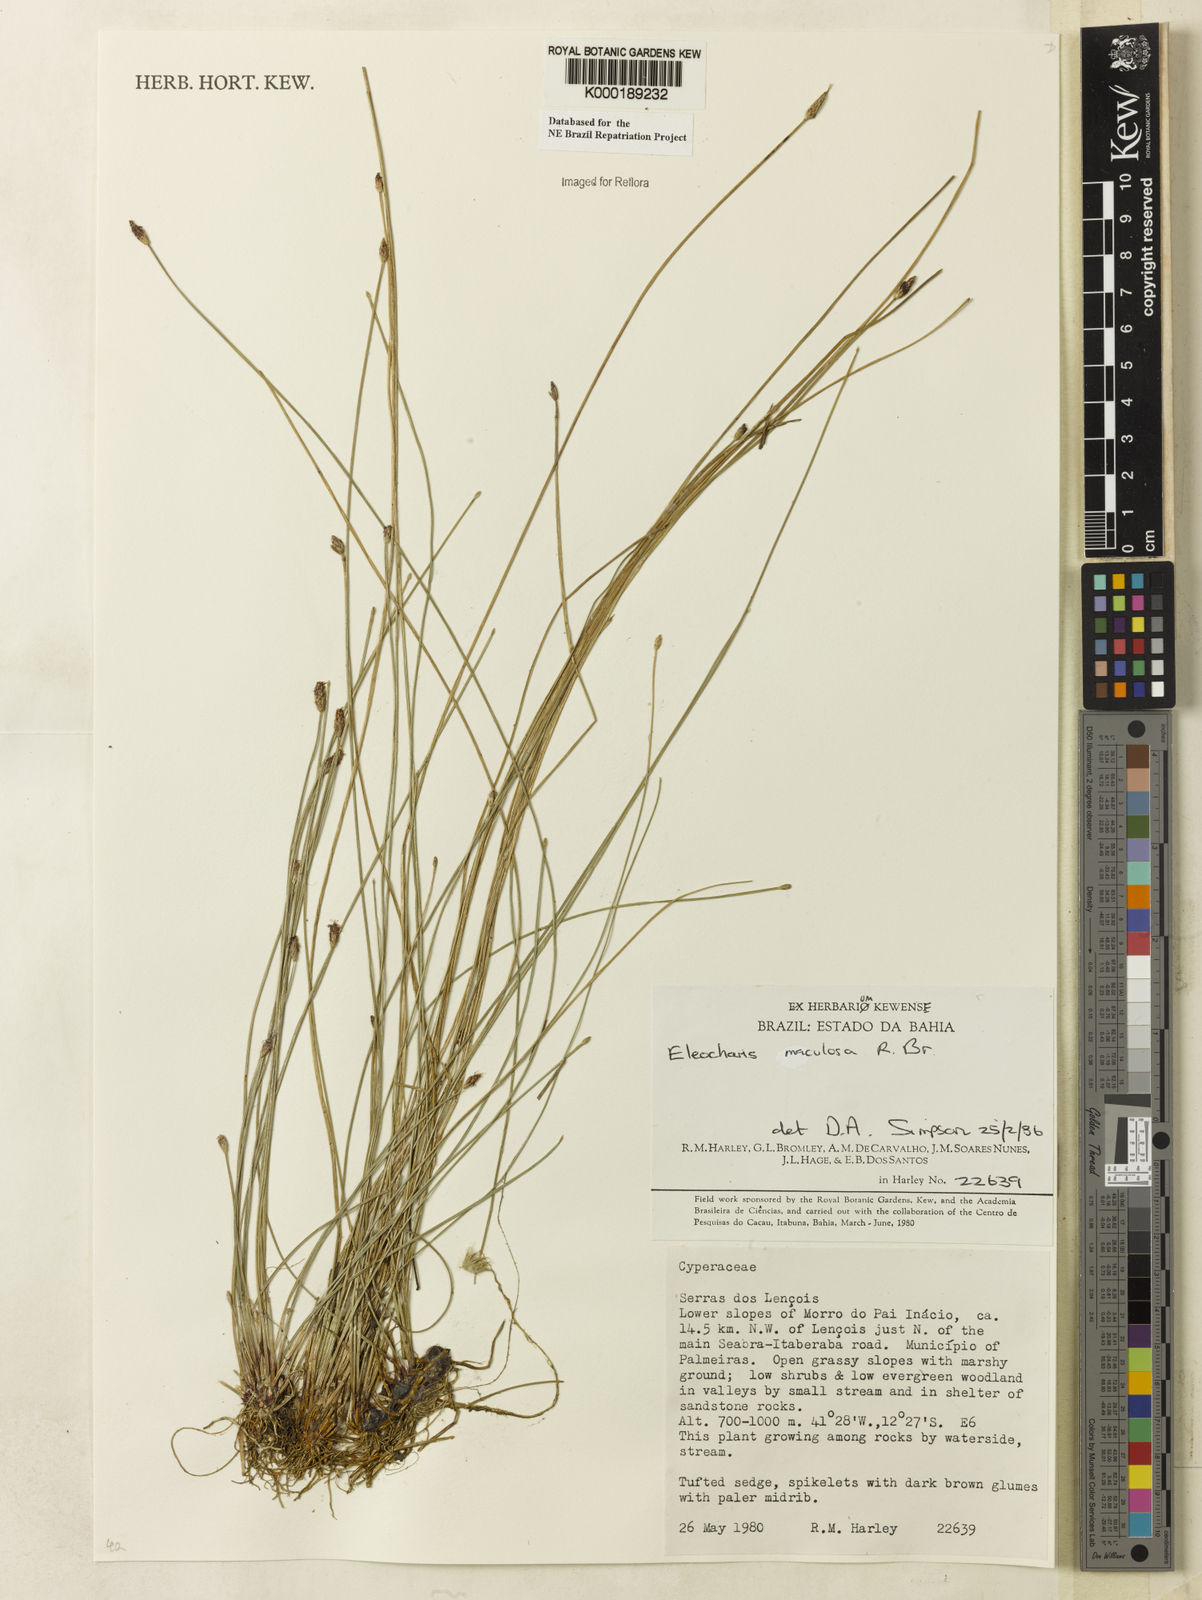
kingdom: Plantae
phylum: Tracheophyta
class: Liliopsida
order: Poales
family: Cyperaceae
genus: Eleocharis
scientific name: Eleocharis maculosa
